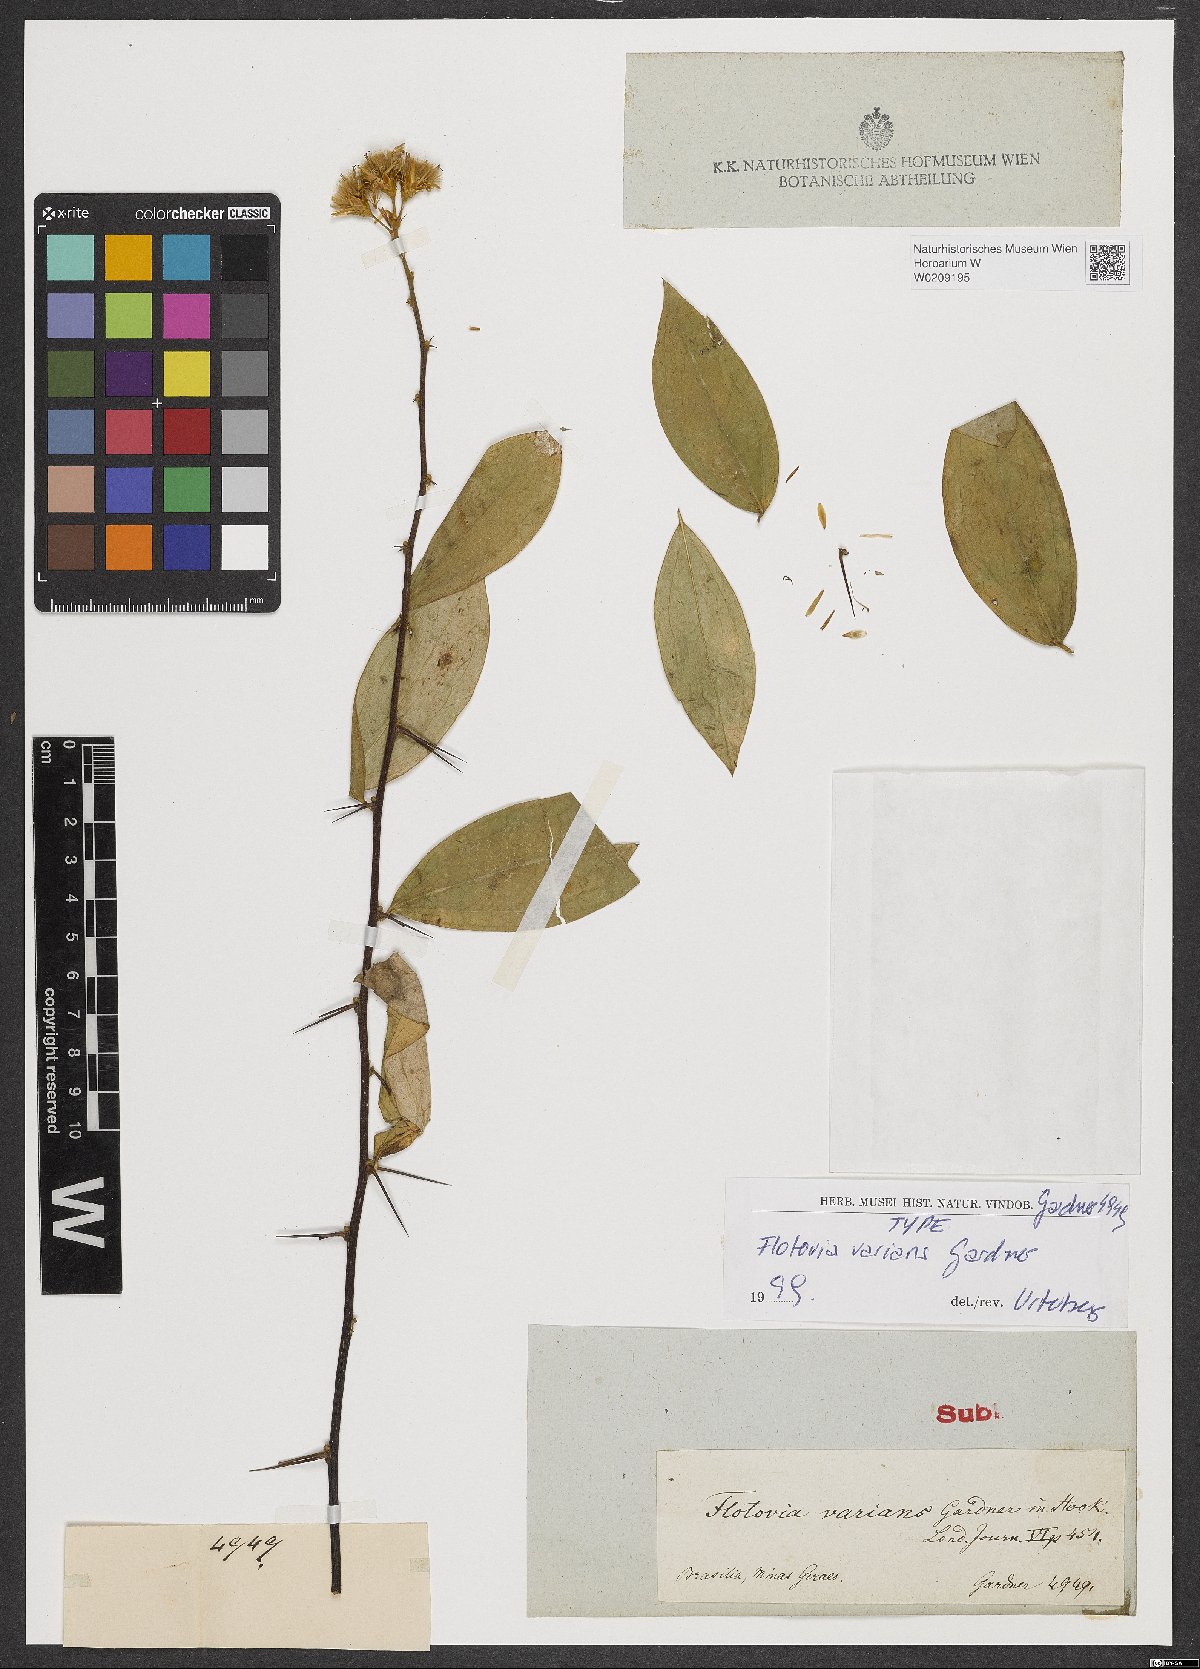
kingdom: Plantae
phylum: Tracheophyta
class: Magnoliopsida
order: Asterales
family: Asteraceae
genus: Dasyphyllum
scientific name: Dasyphyllum varians
